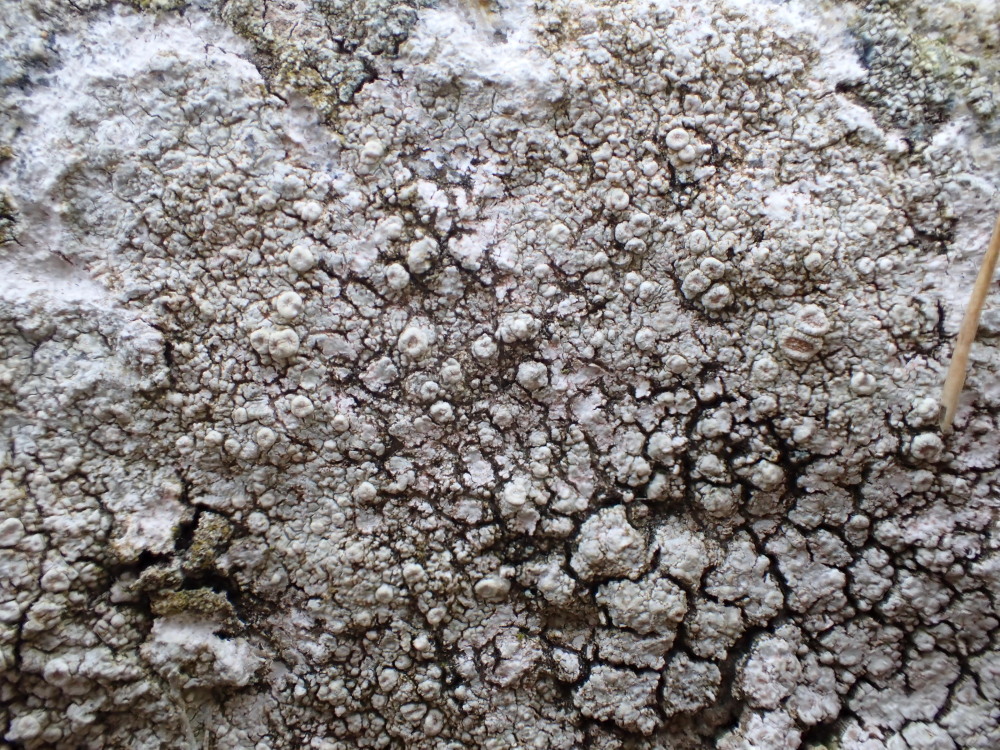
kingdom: Fungi
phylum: Ascomycota
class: Lecanoromycetes
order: Pertusariales
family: Ochrolechiaceae
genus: Ochrolechia
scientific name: Ochrolechia parella
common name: almindelig blegskivelav
